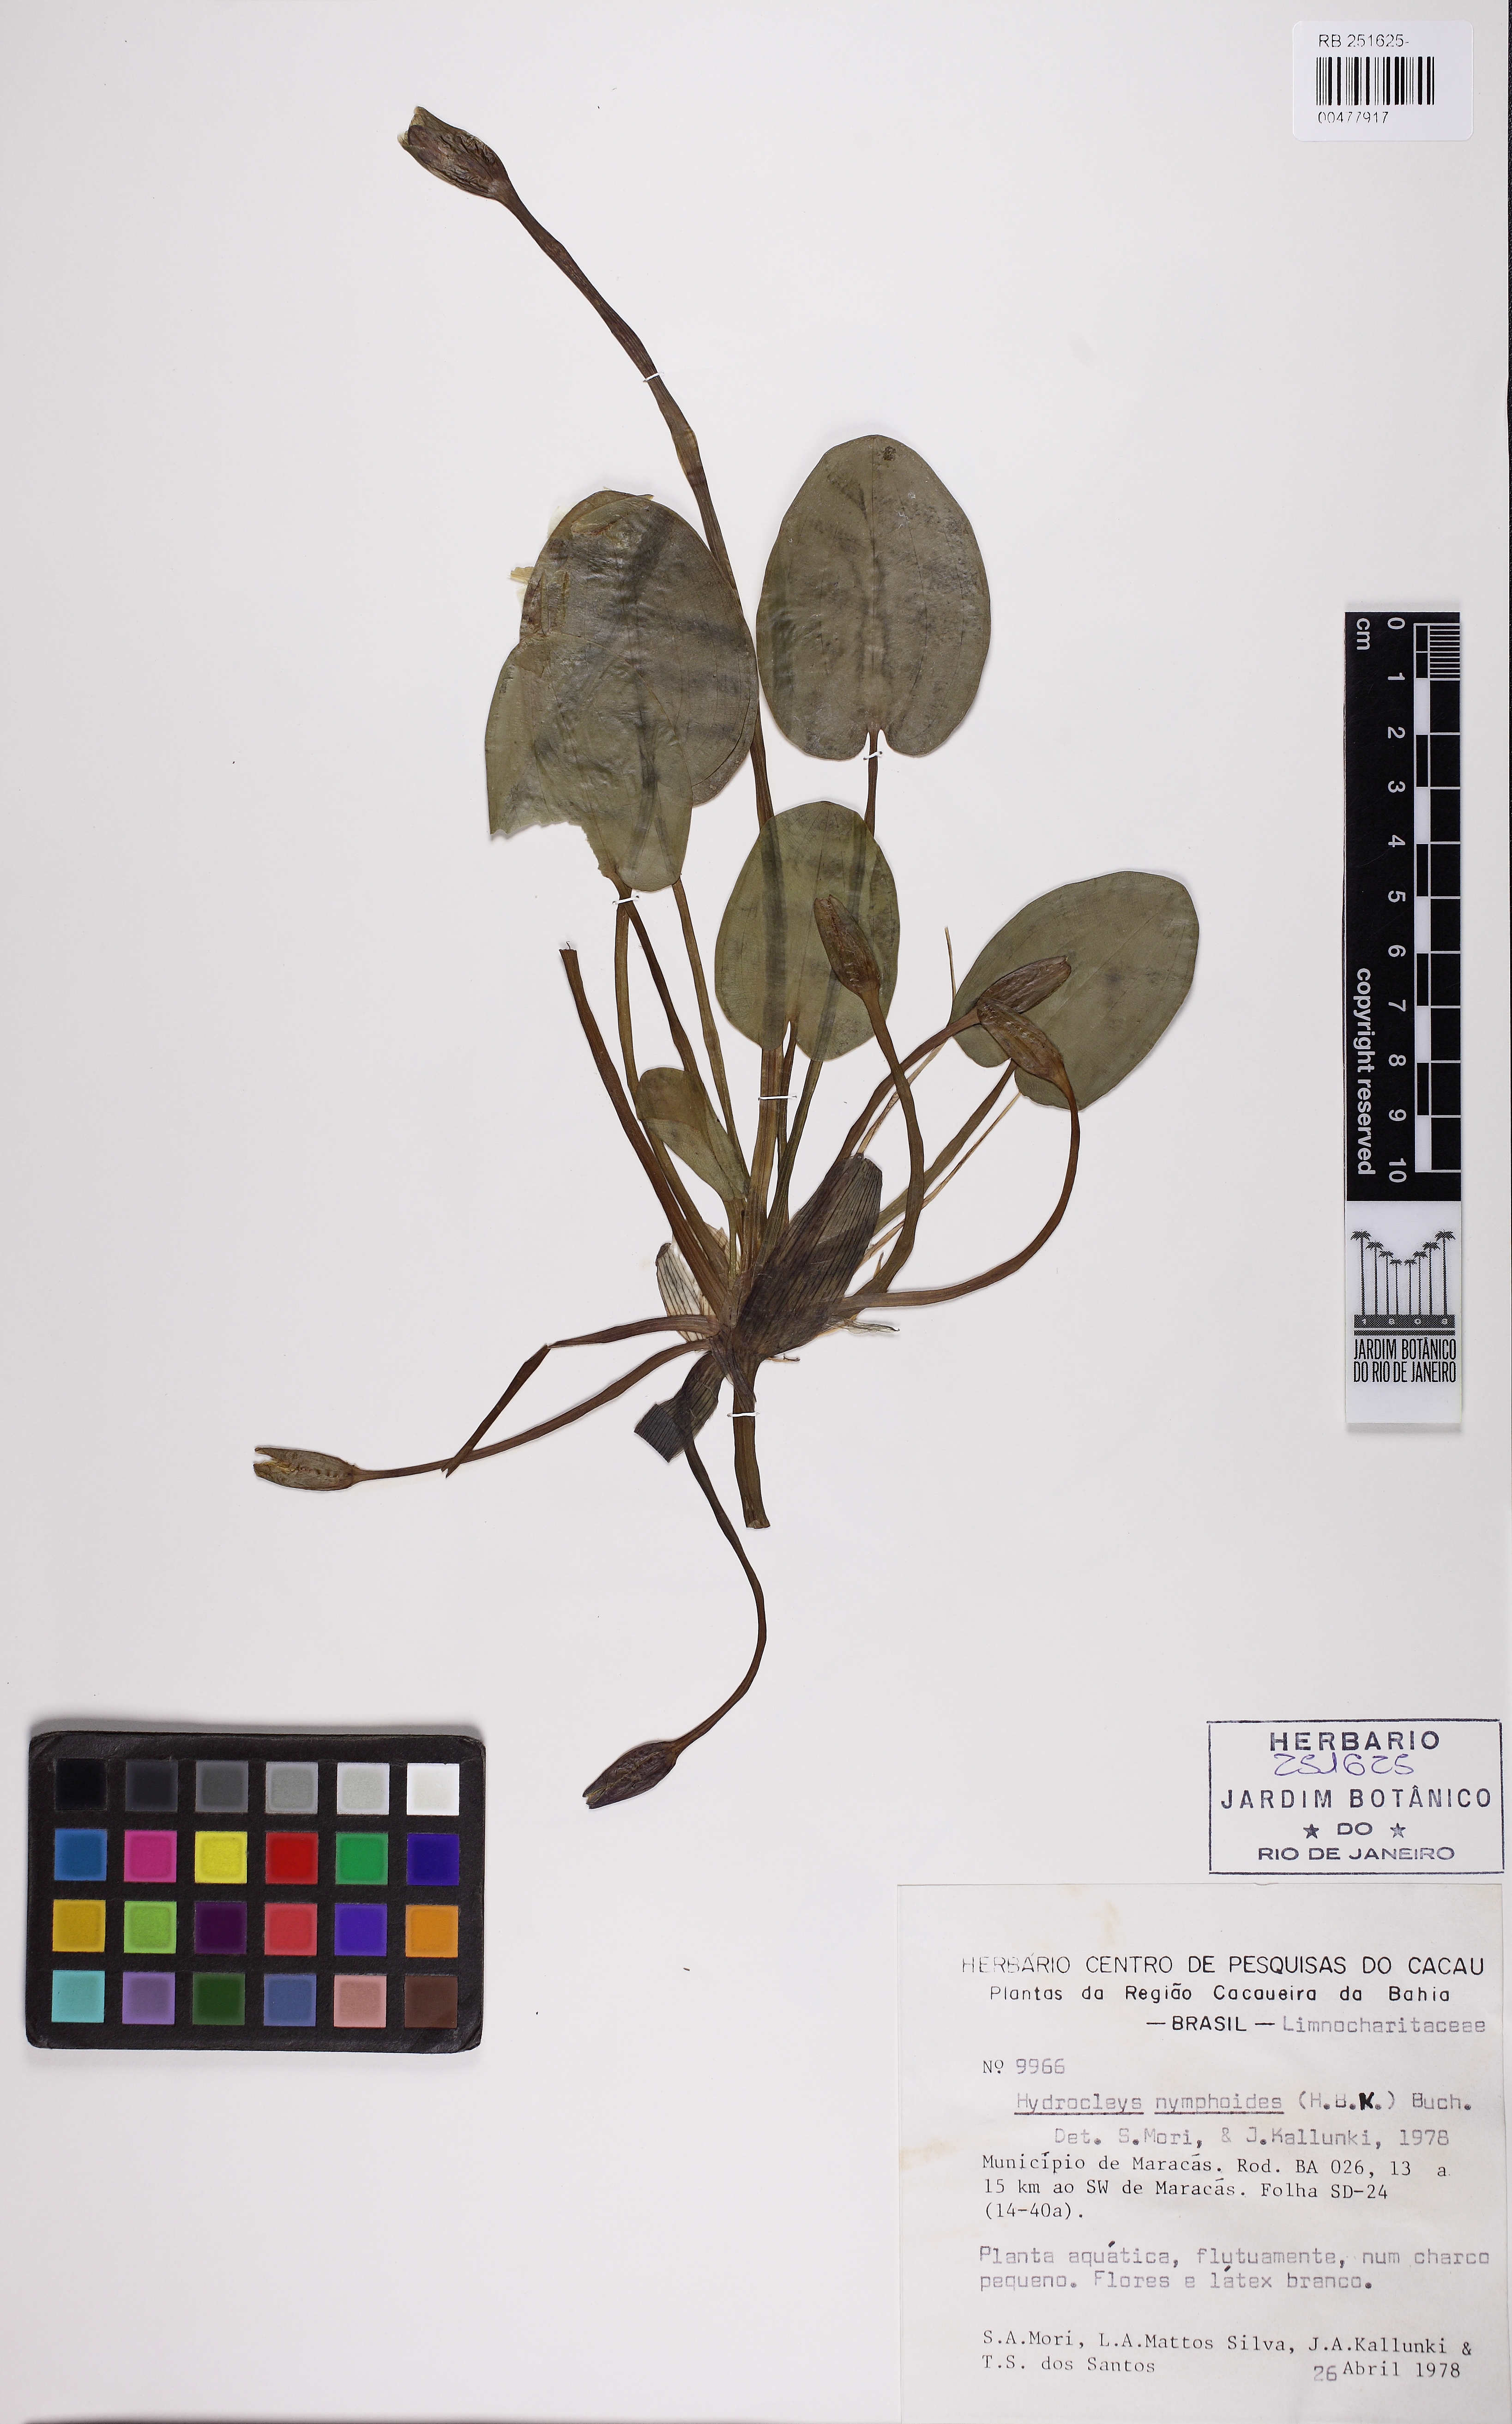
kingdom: Plantae
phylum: Tracheophyta
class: Liliopsida
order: Alismatales
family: Alismataceae
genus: Hydrocleys
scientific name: Hydrocleys nymphoides
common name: Water-poppy
